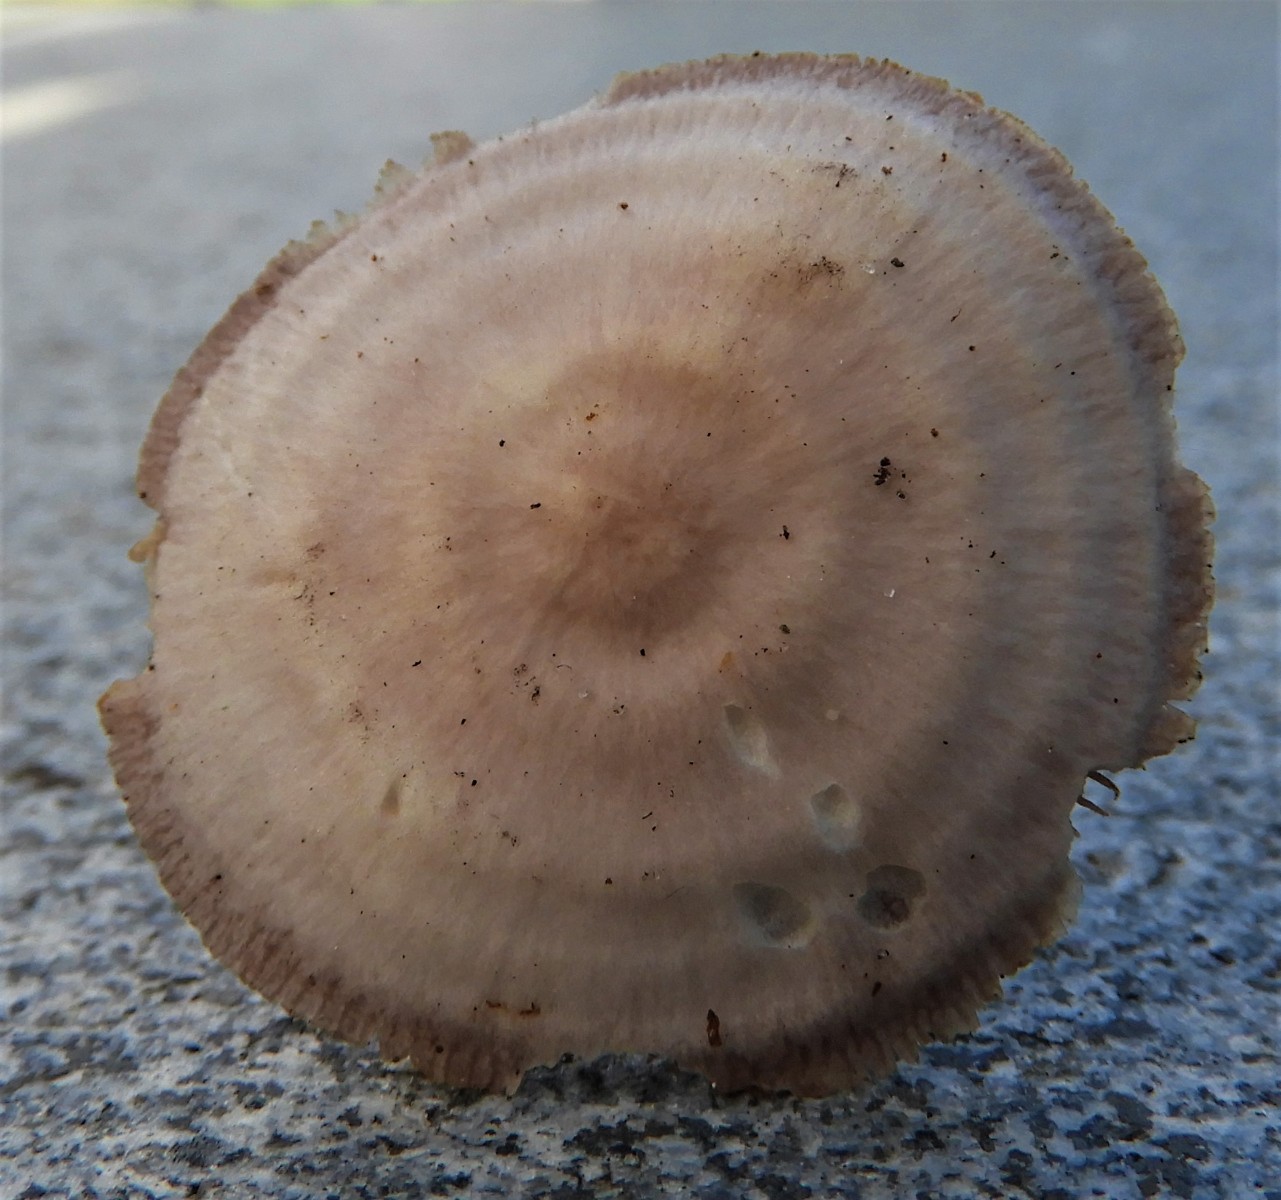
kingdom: Fungi
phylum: Basidiomycota
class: Agaricomycetes
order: Agaricales
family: Mycenaceae
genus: Mycena
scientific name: Mycena pelianthina
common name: mørkbladet huesvamp
